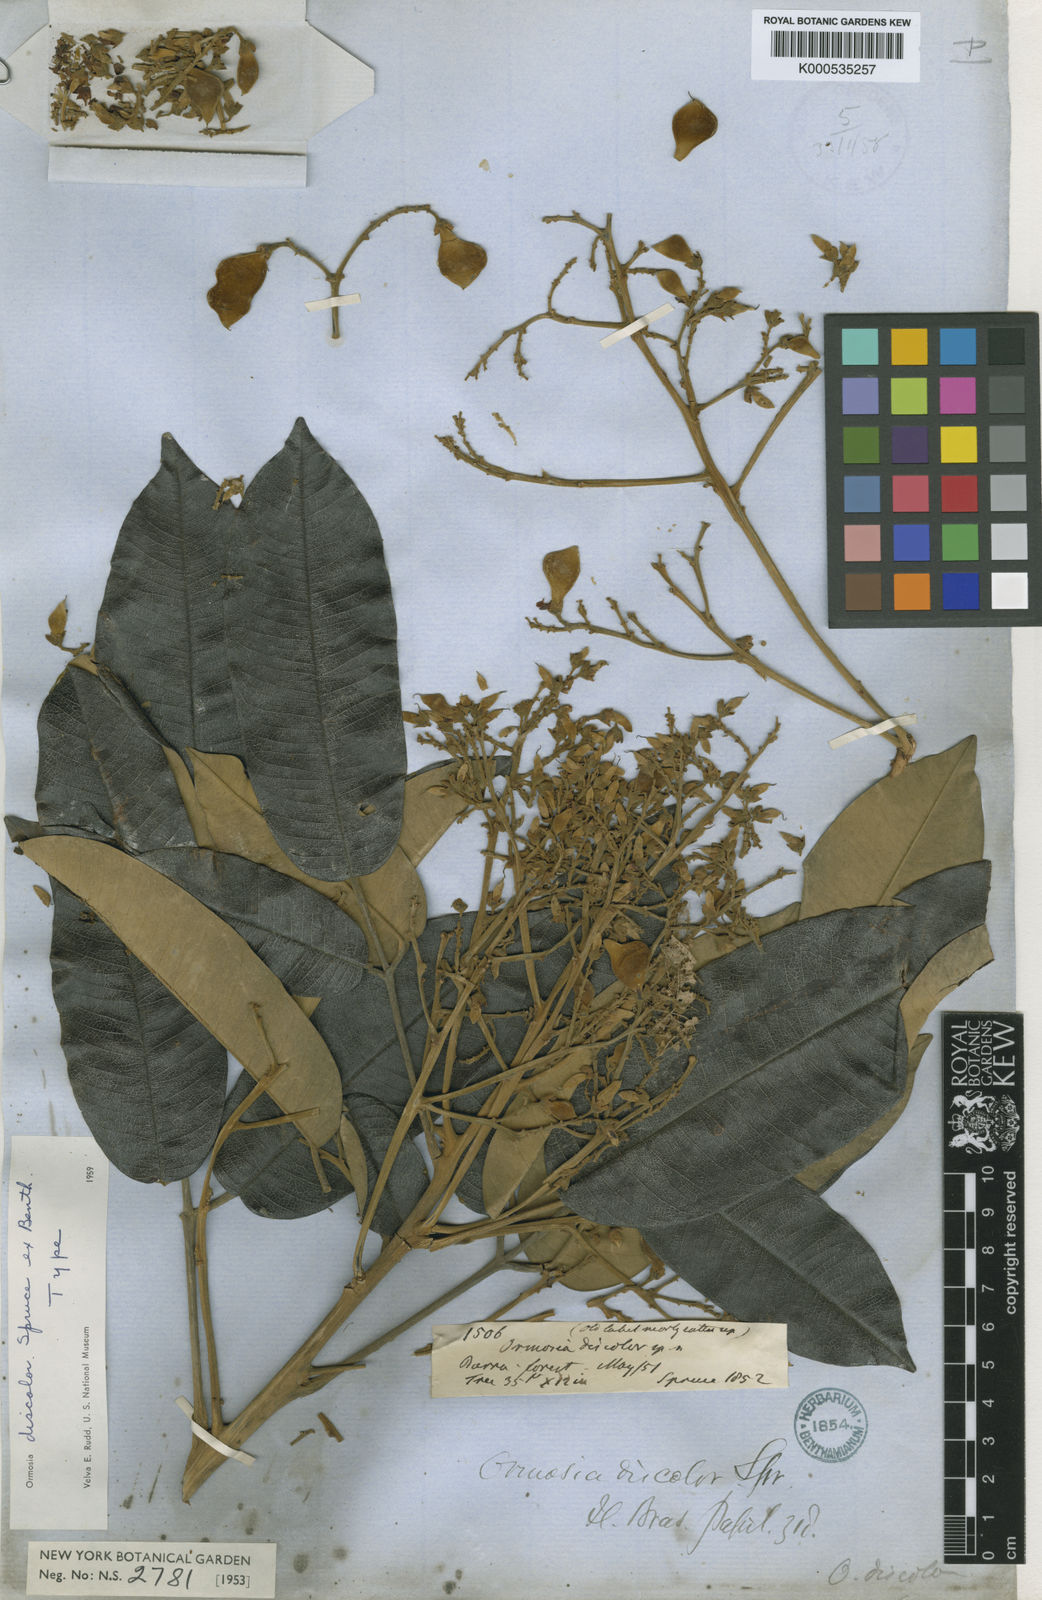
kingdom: Plantae
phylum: Tracheophyta
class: Magnoliopsida
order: Fabales
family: Fabaceae
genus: Ormosia
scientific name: Ormosia discolor
